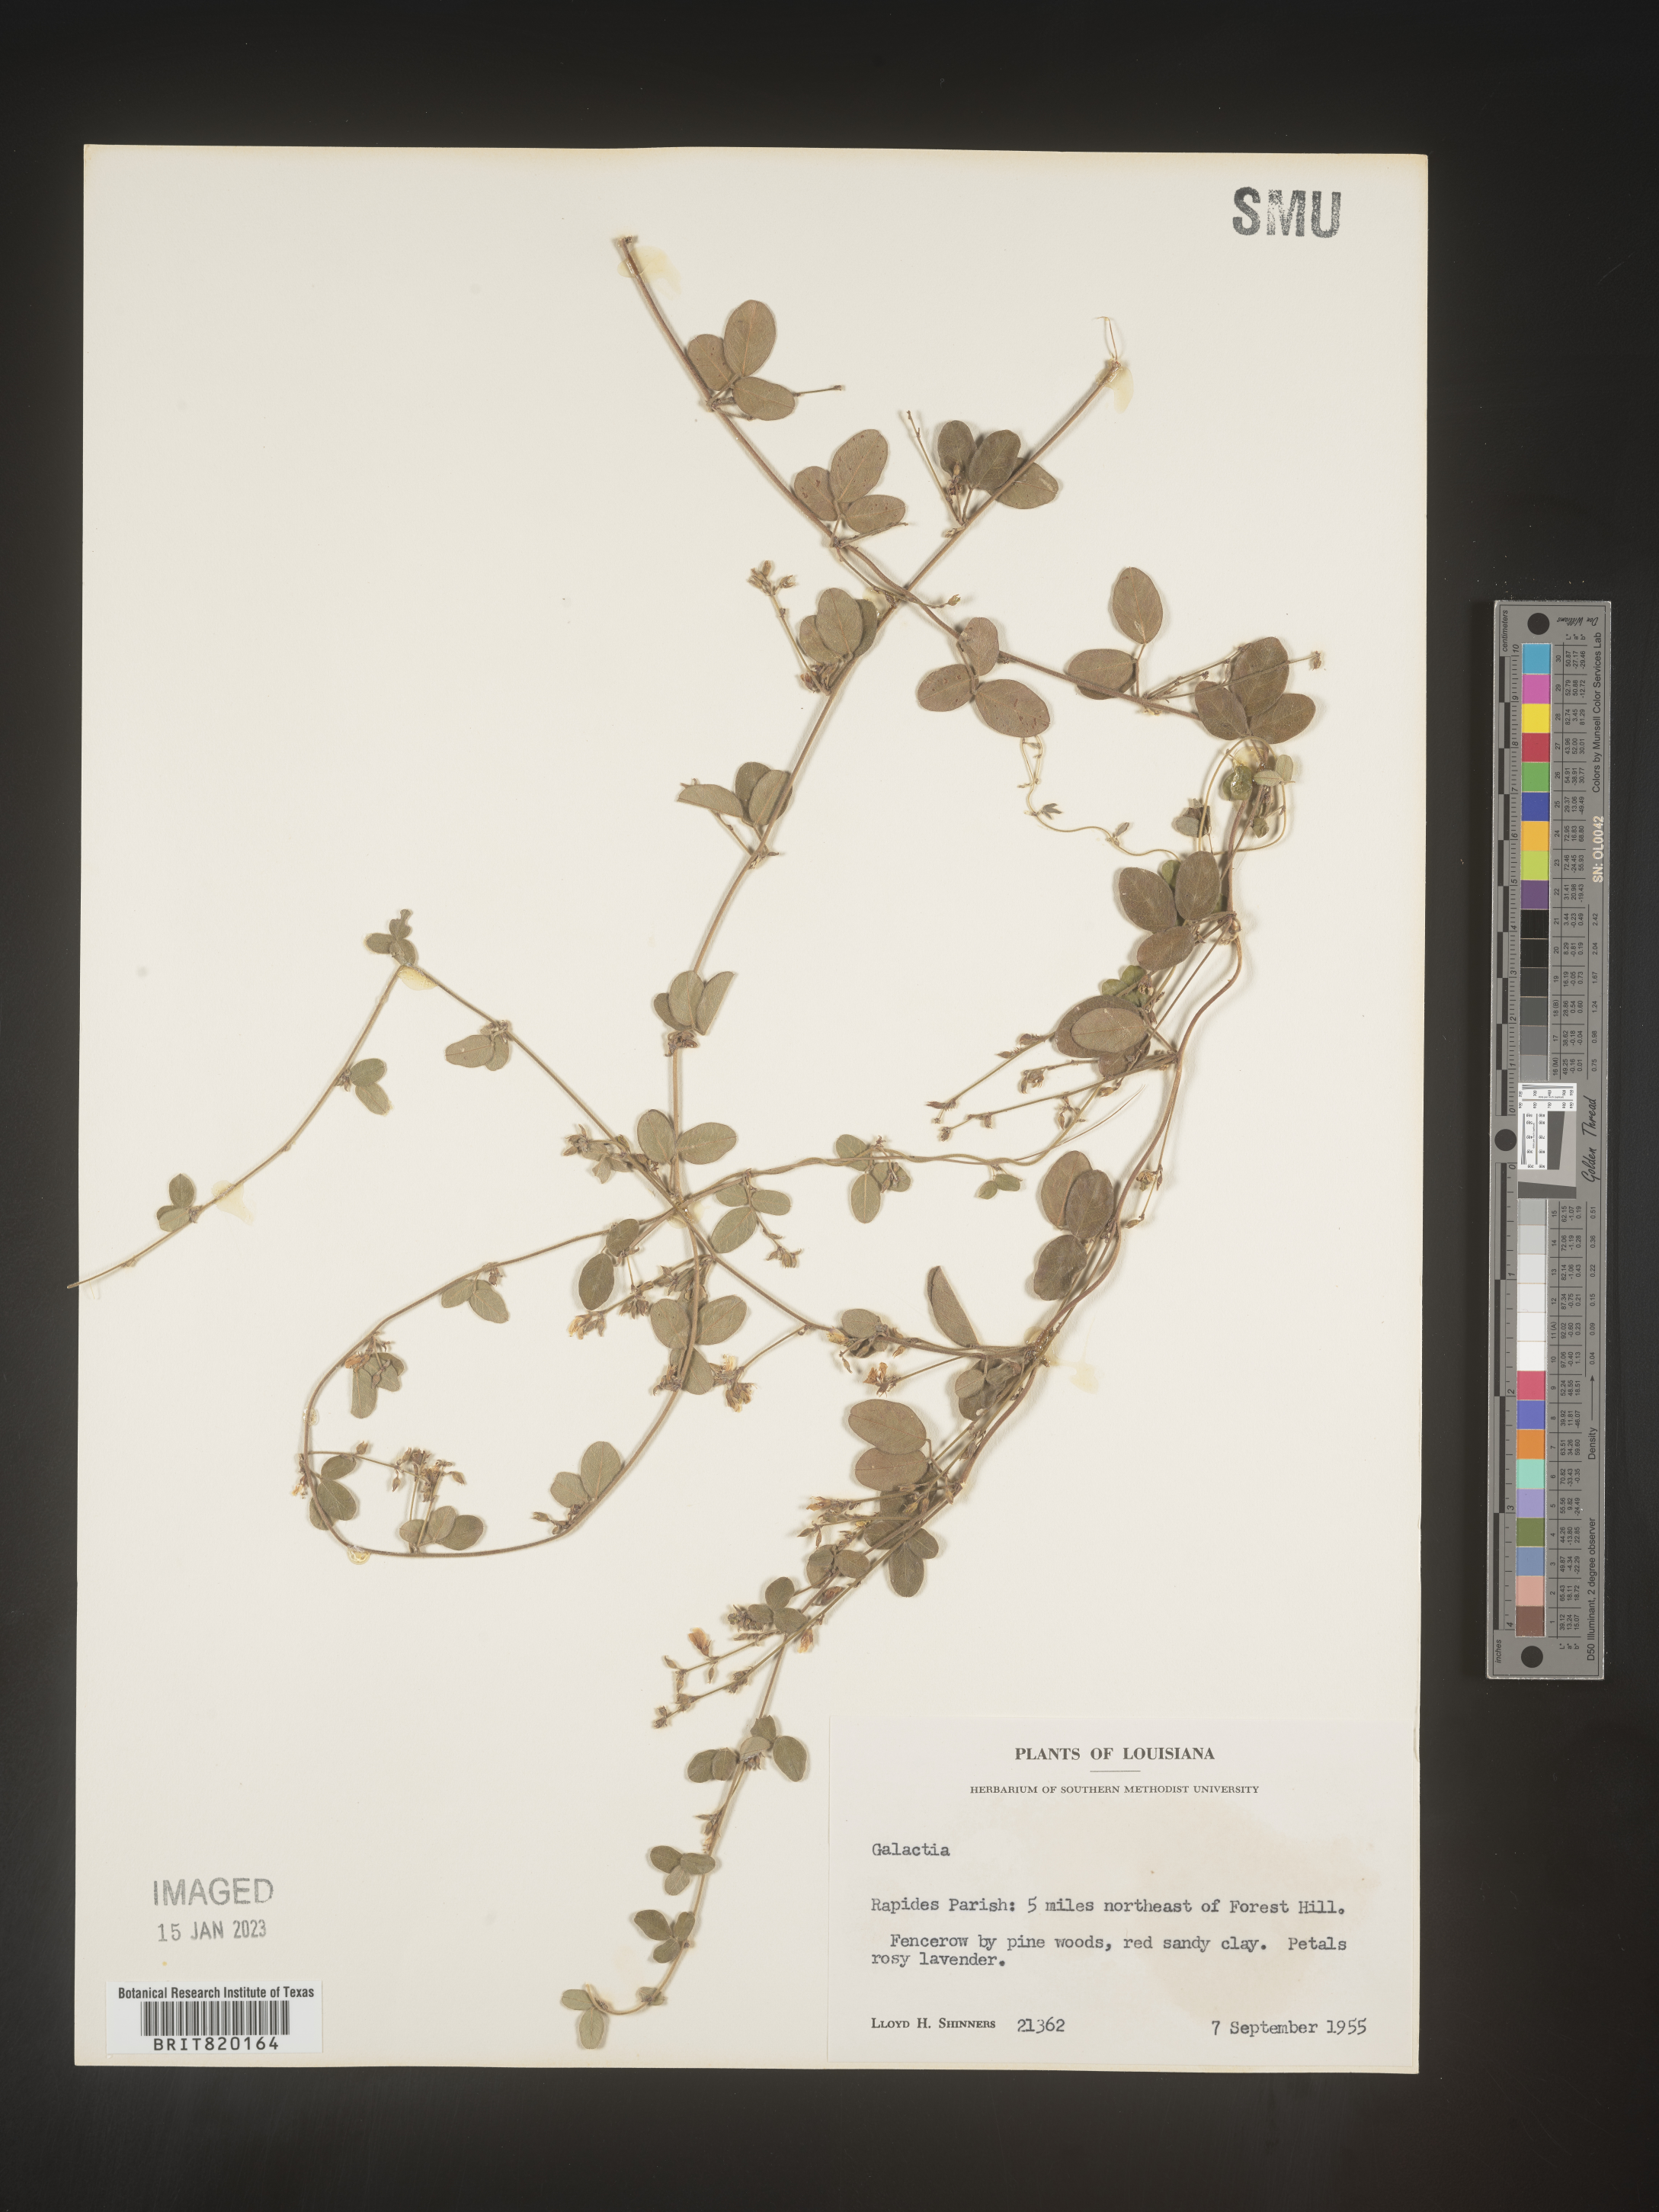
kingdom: Plantae
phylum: Tracheophyta
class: Magnoliopsida
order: Fabales
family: Fabaceae
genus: Galactia
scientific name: Galactia volubilis
